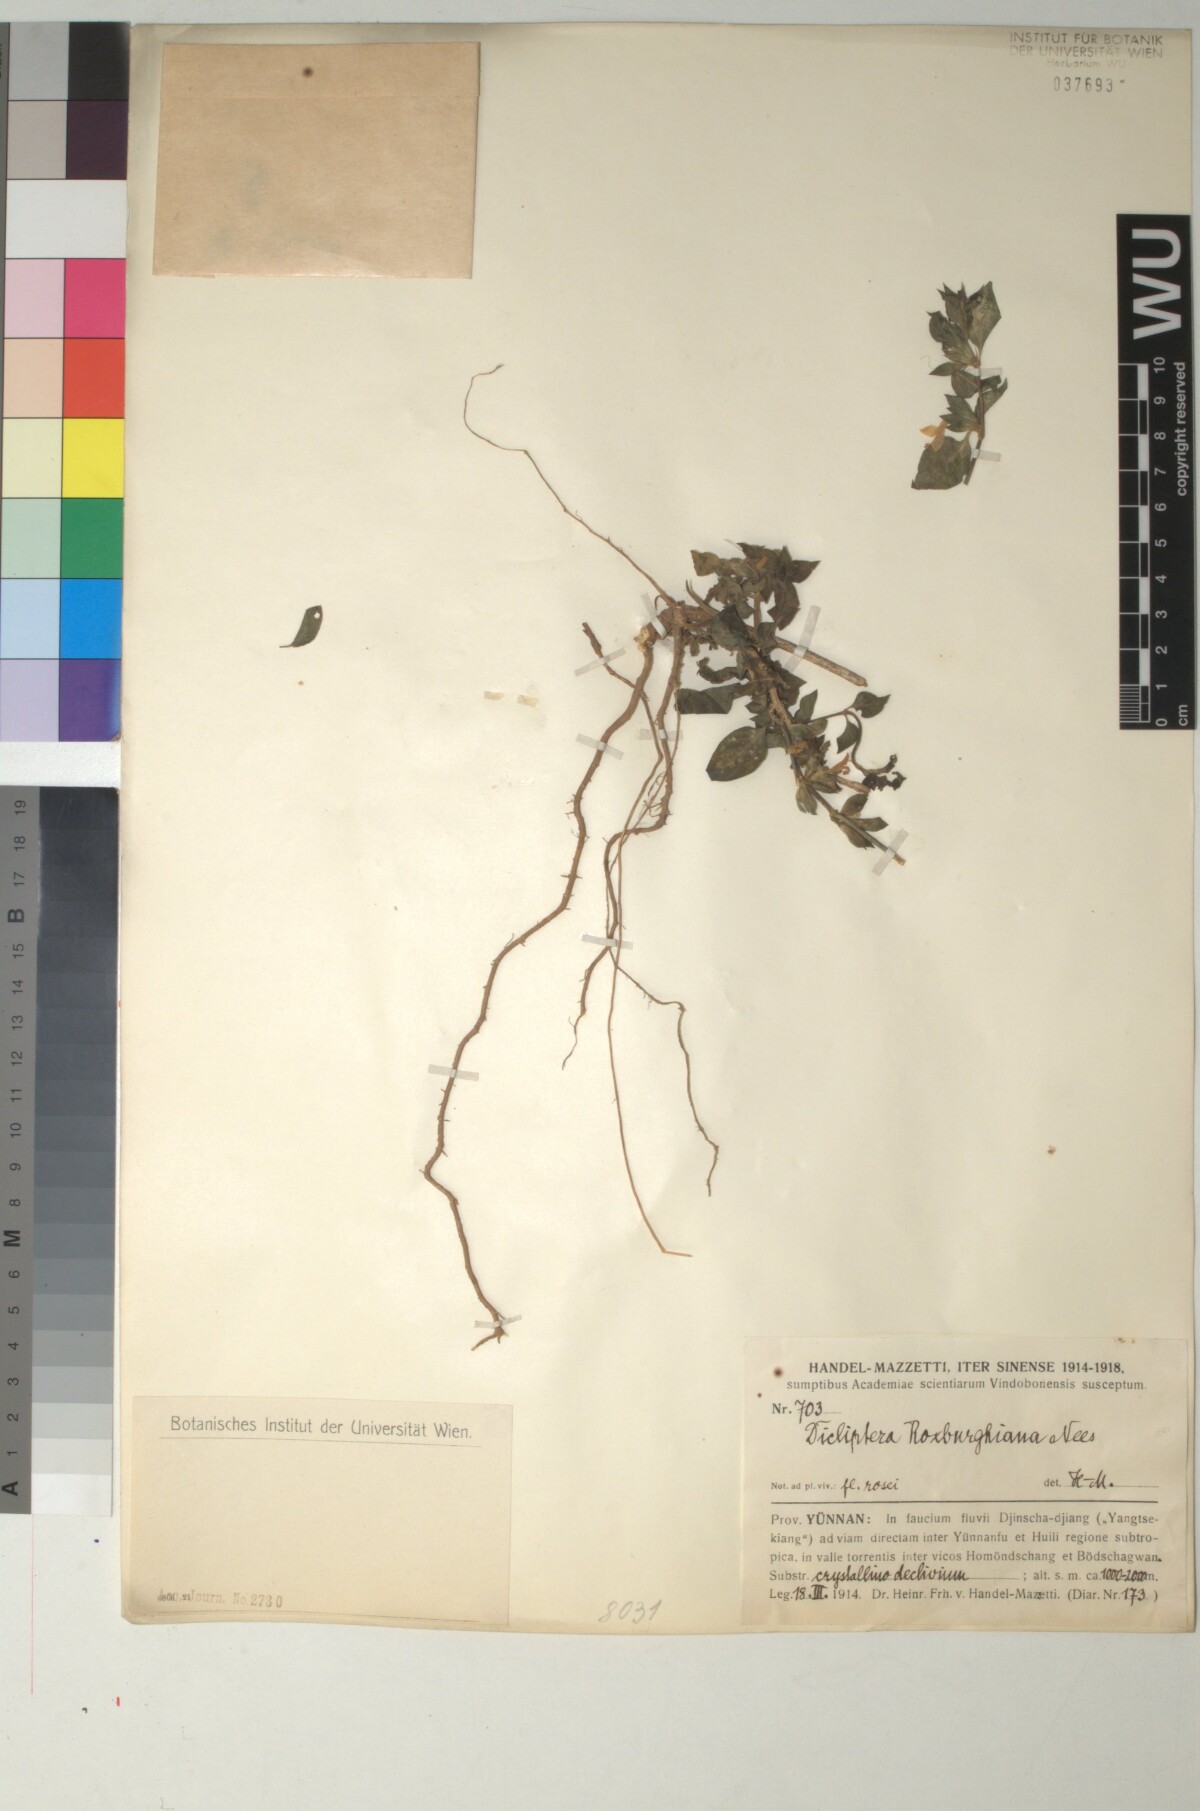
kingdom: Plantae
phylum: Tracheophyta
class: Magnoliopsida
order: Lamiales
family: Acanthaceae
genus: Dicliptera
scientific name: Dicliptera chinensis
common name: Chinese foldwing
